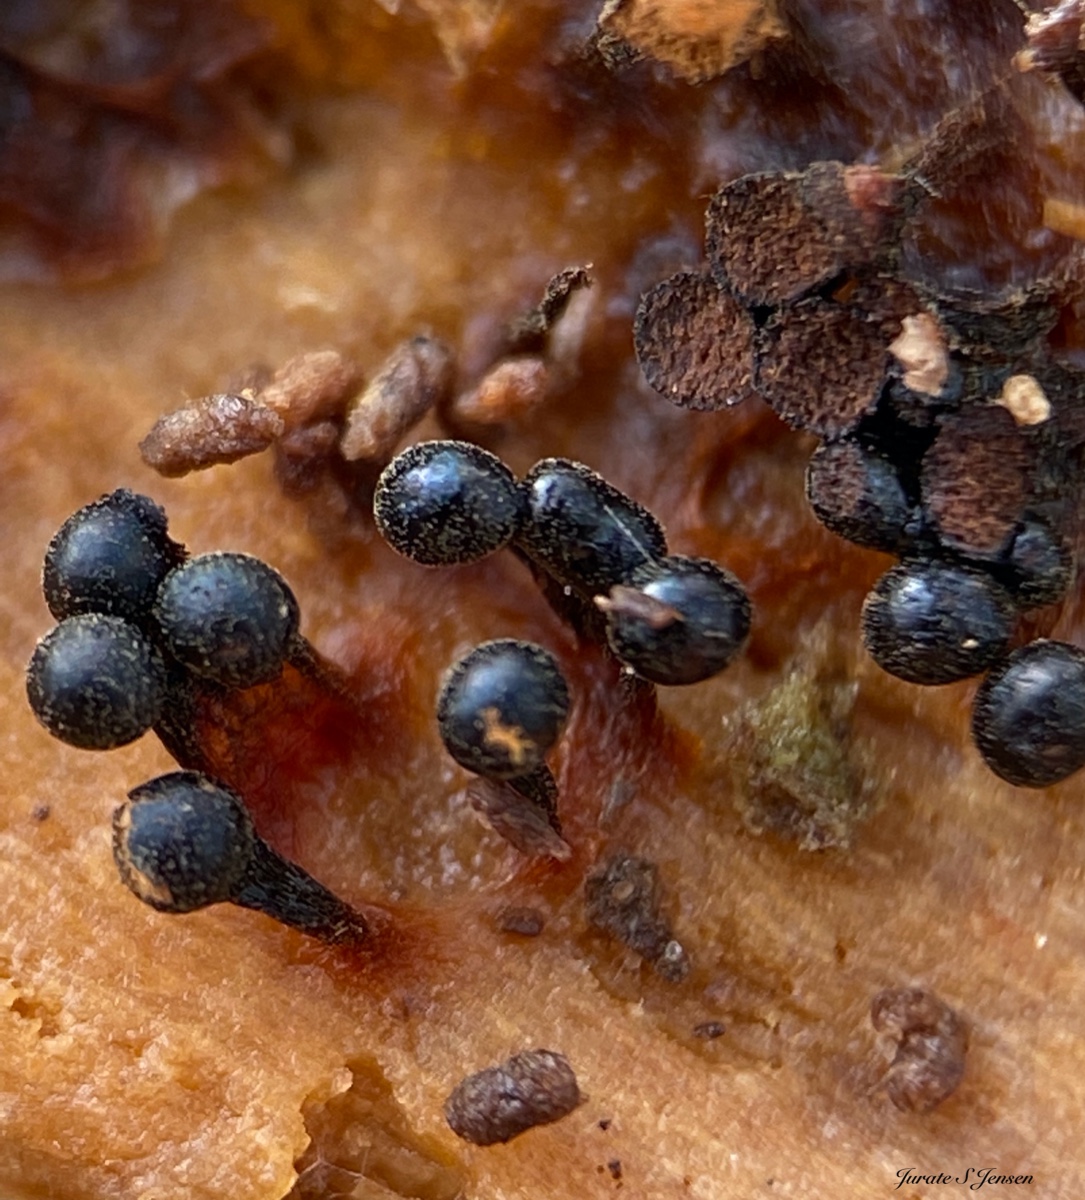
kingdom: Protozoa
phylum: Mycetozoa
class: Myxomycetes
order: Trichiales
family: Trichiaceae
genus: Metatrichia
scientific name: Metatrichia floriformis
